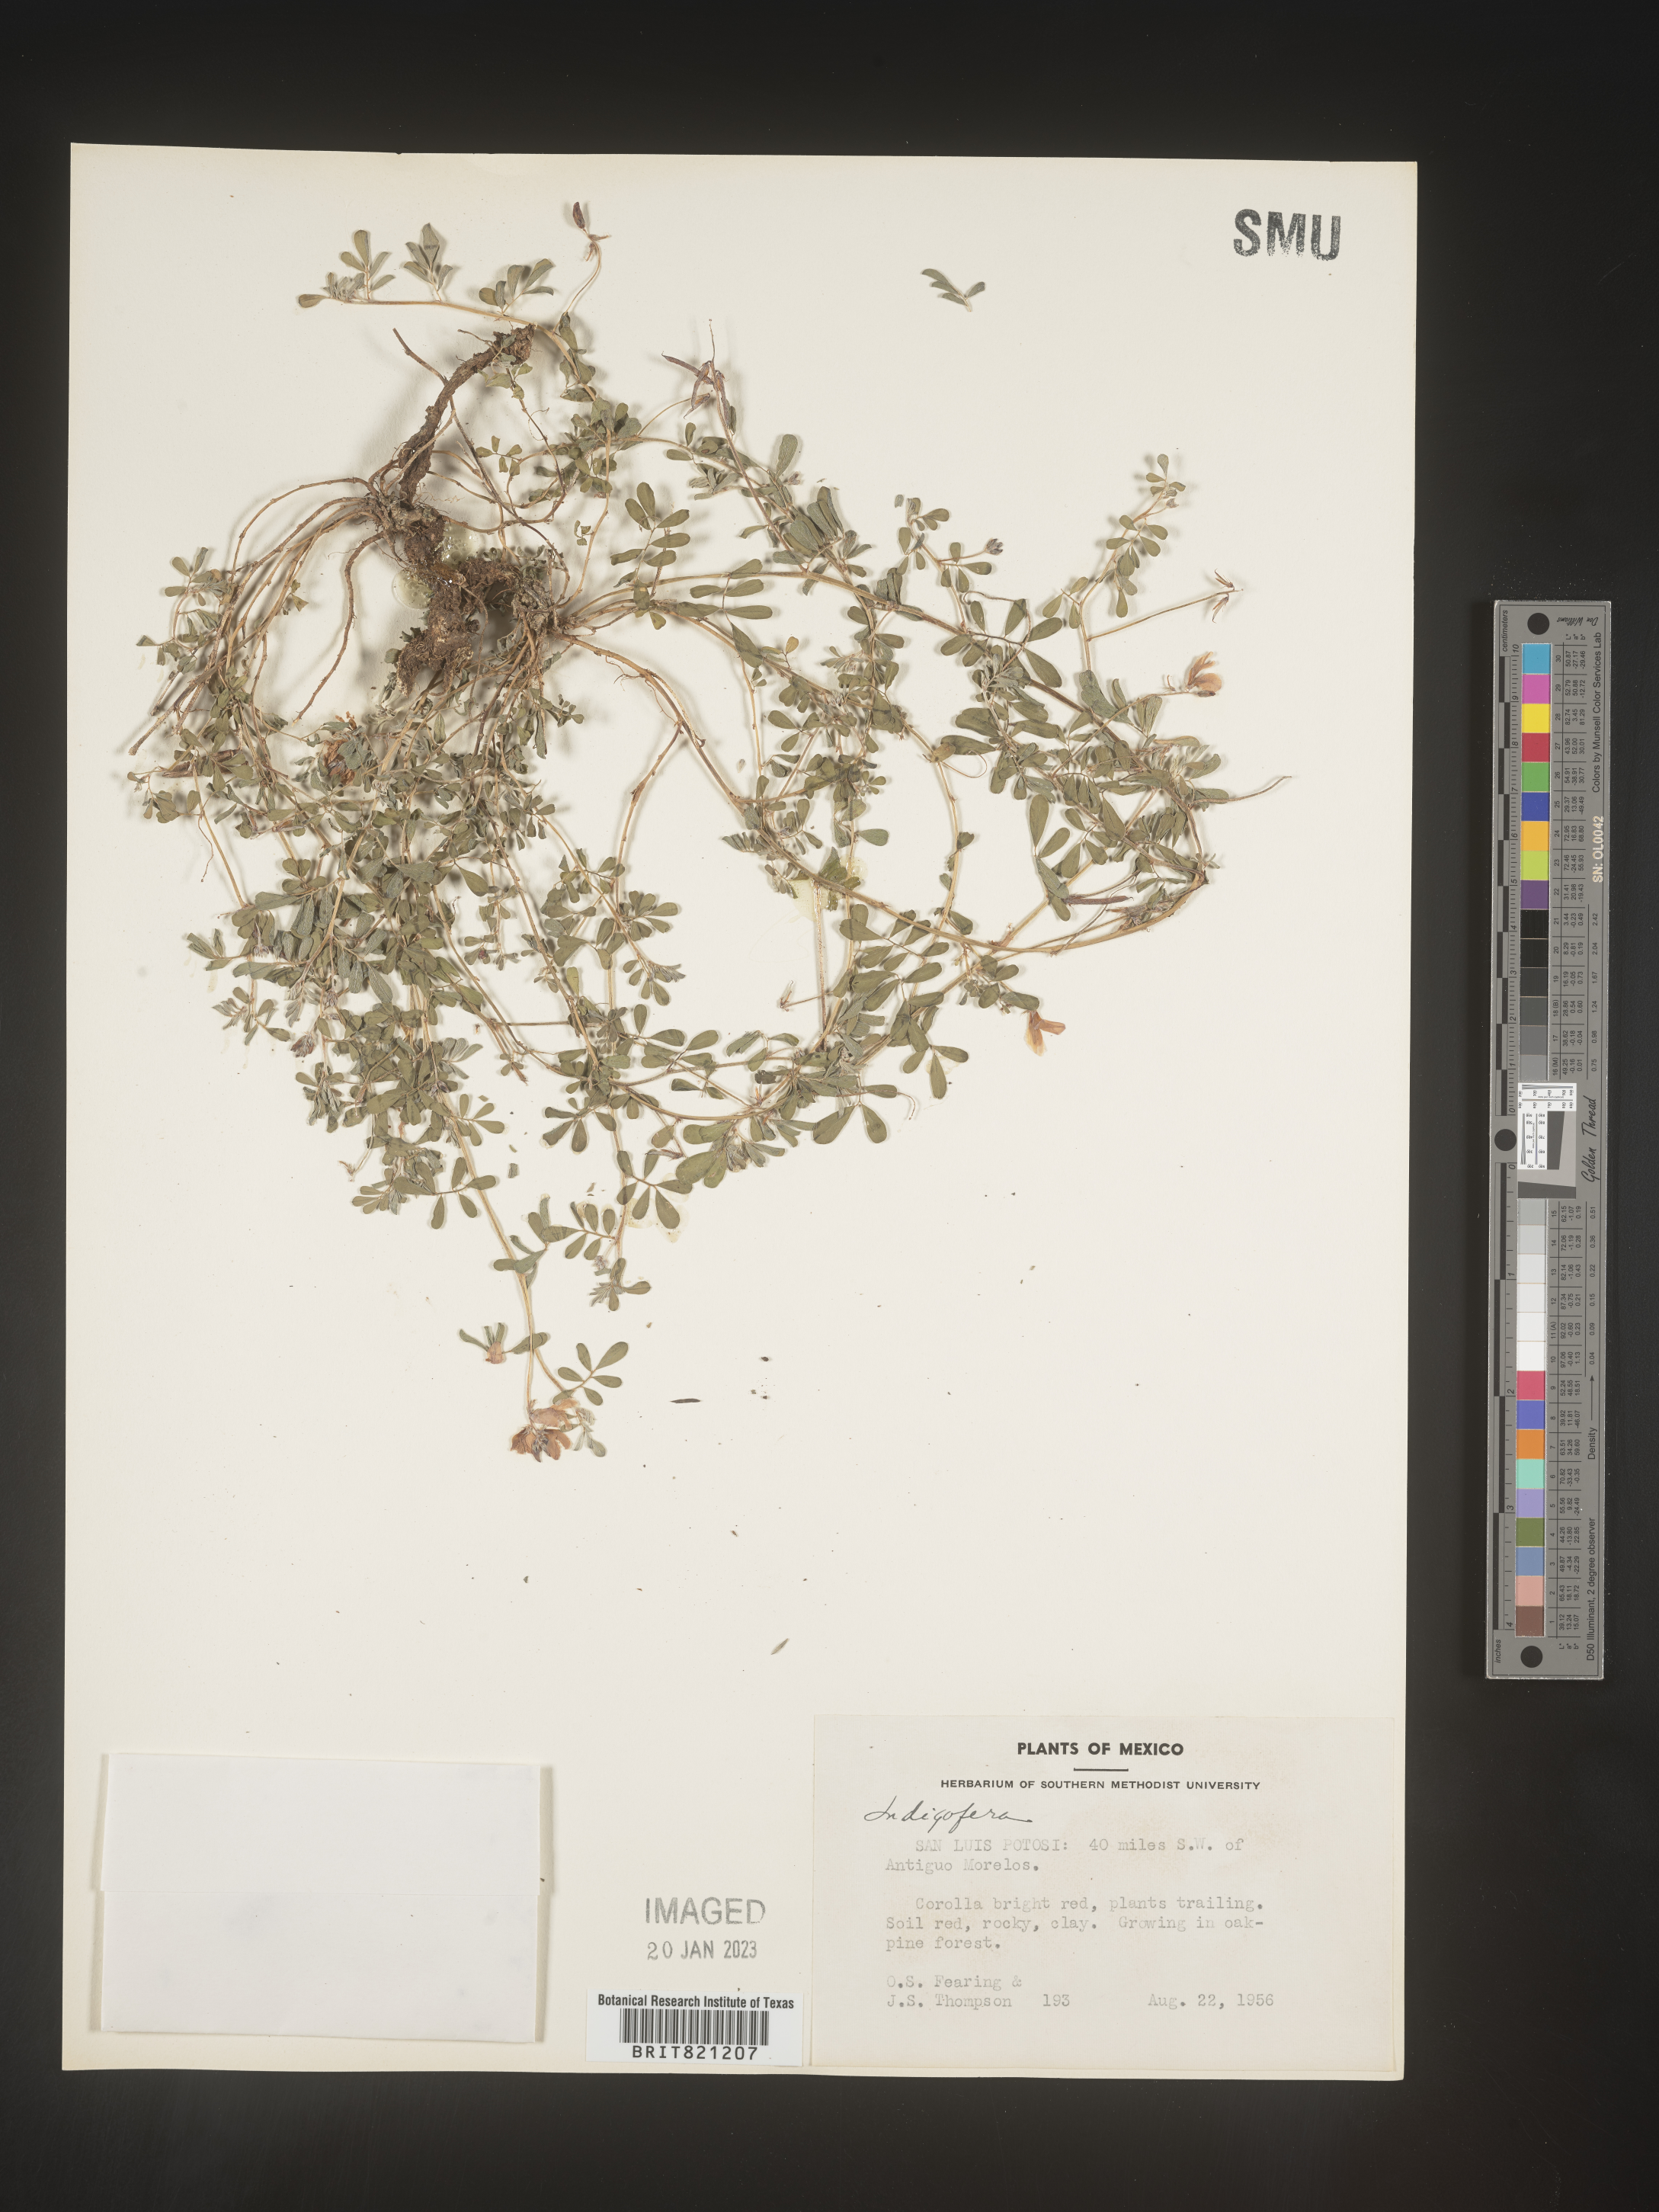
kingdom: Plantae
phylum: Tracheophyta
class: Magnoliopsida
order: Fabales
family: Fabaceae
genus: Indigofera
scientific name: Indigofera
